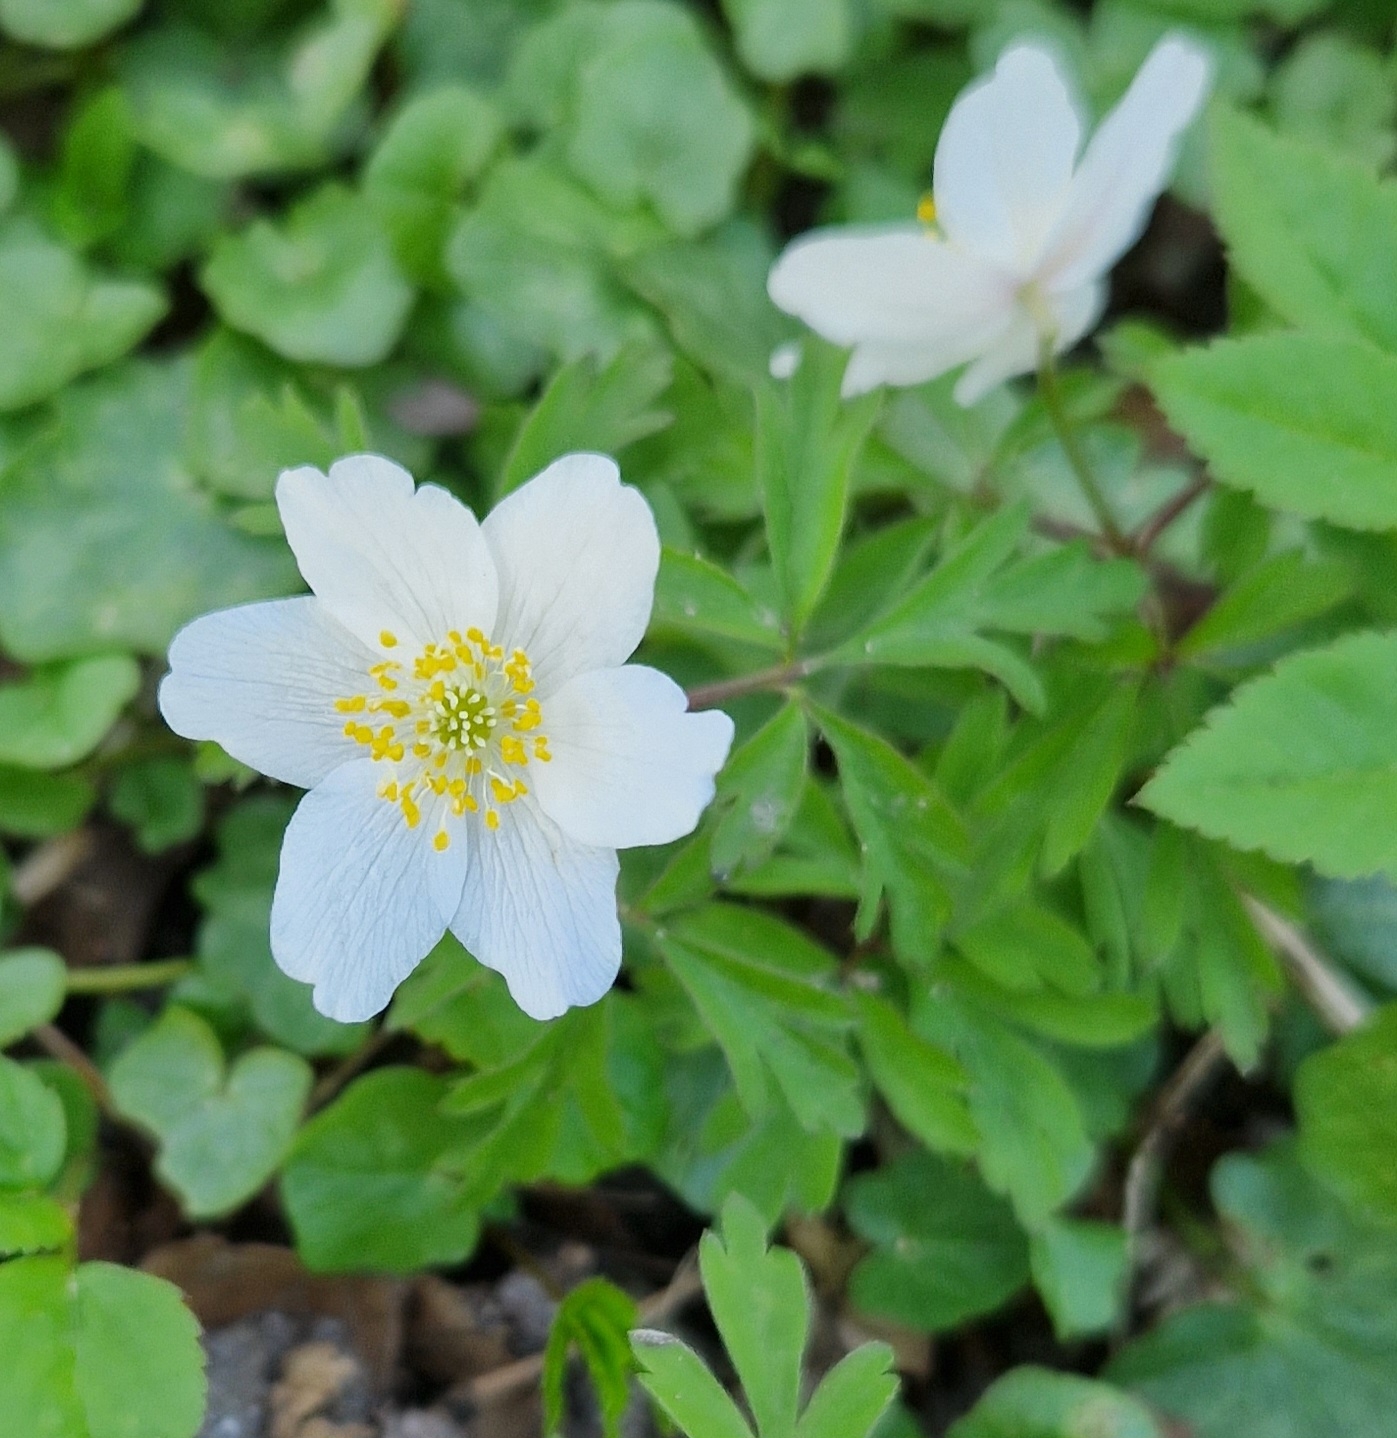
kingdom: Plantae
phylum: Tracheophyta
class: Magnoliopsida
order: Ranunculales
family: Ranunculaceae
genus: Anemone
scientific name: Anemone nemorosa
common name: Hvid anemone
